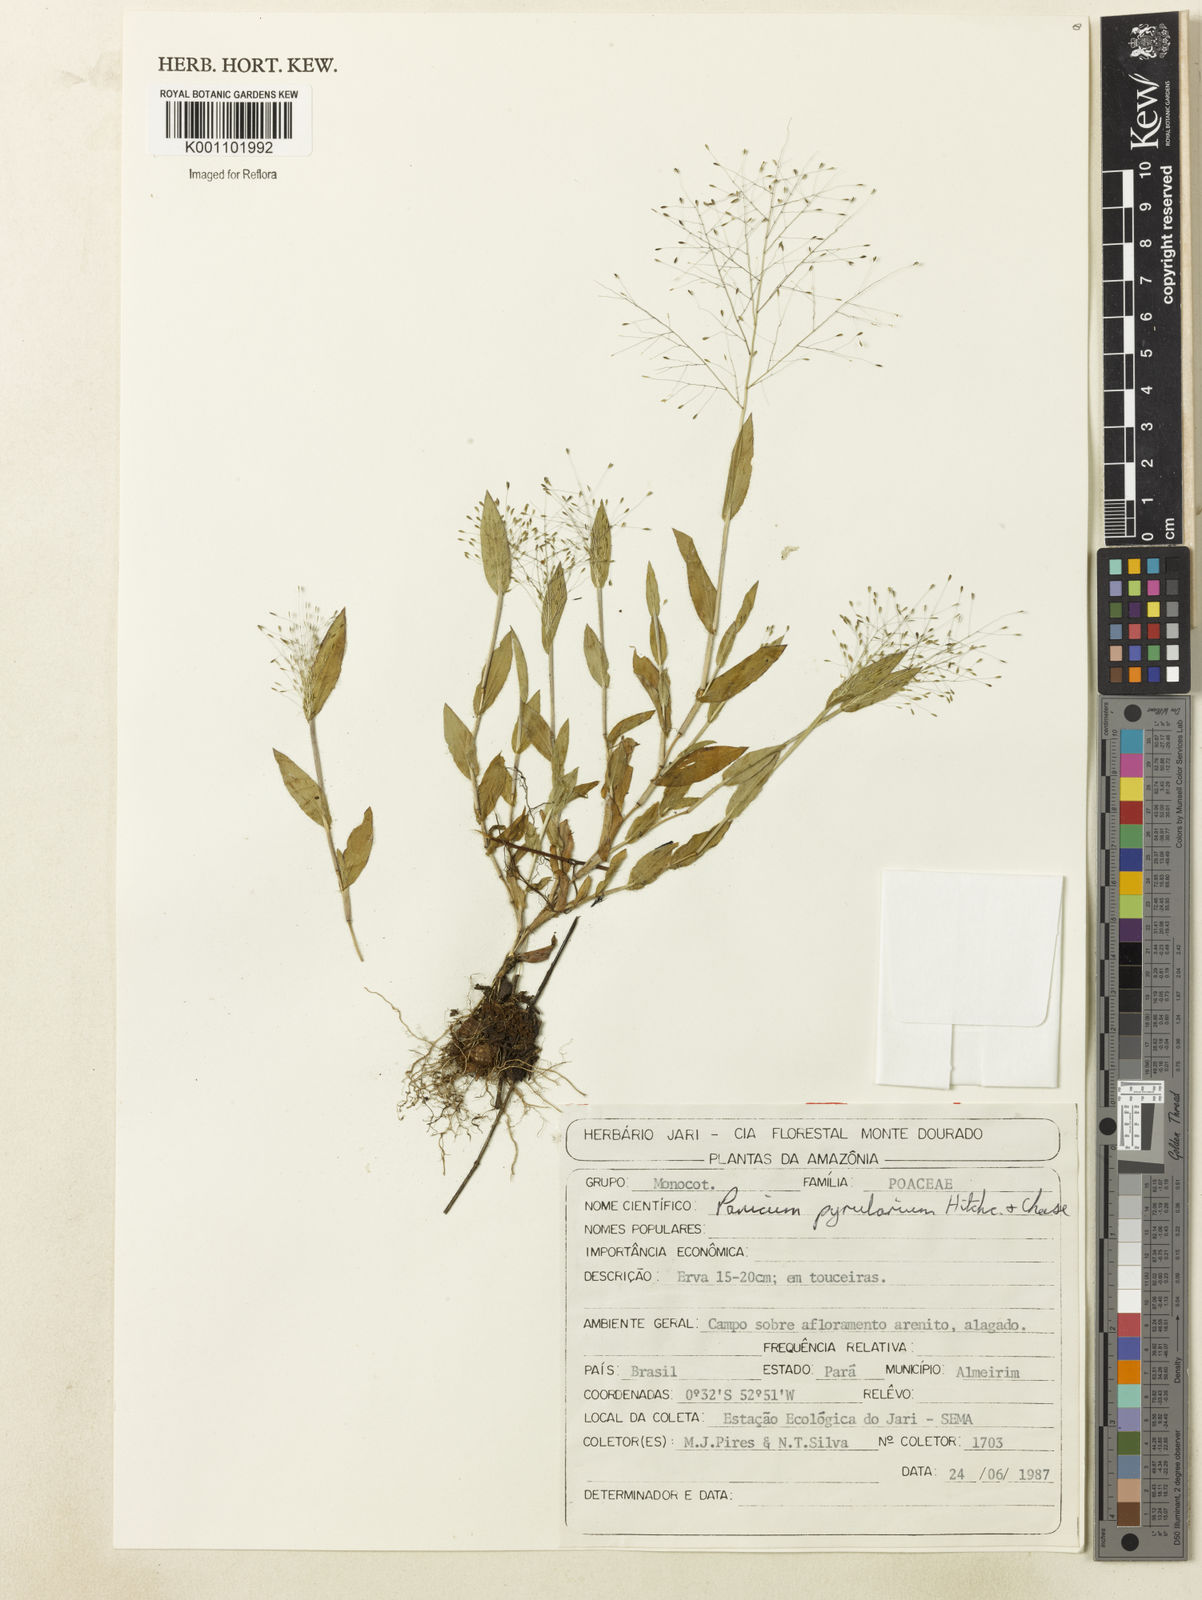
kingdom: Plantae
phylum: Tracheophyta
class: Liliopsida
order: Poales
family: Poaceae
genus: Trichanthecium
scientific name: Trichanthecium pyrularium
